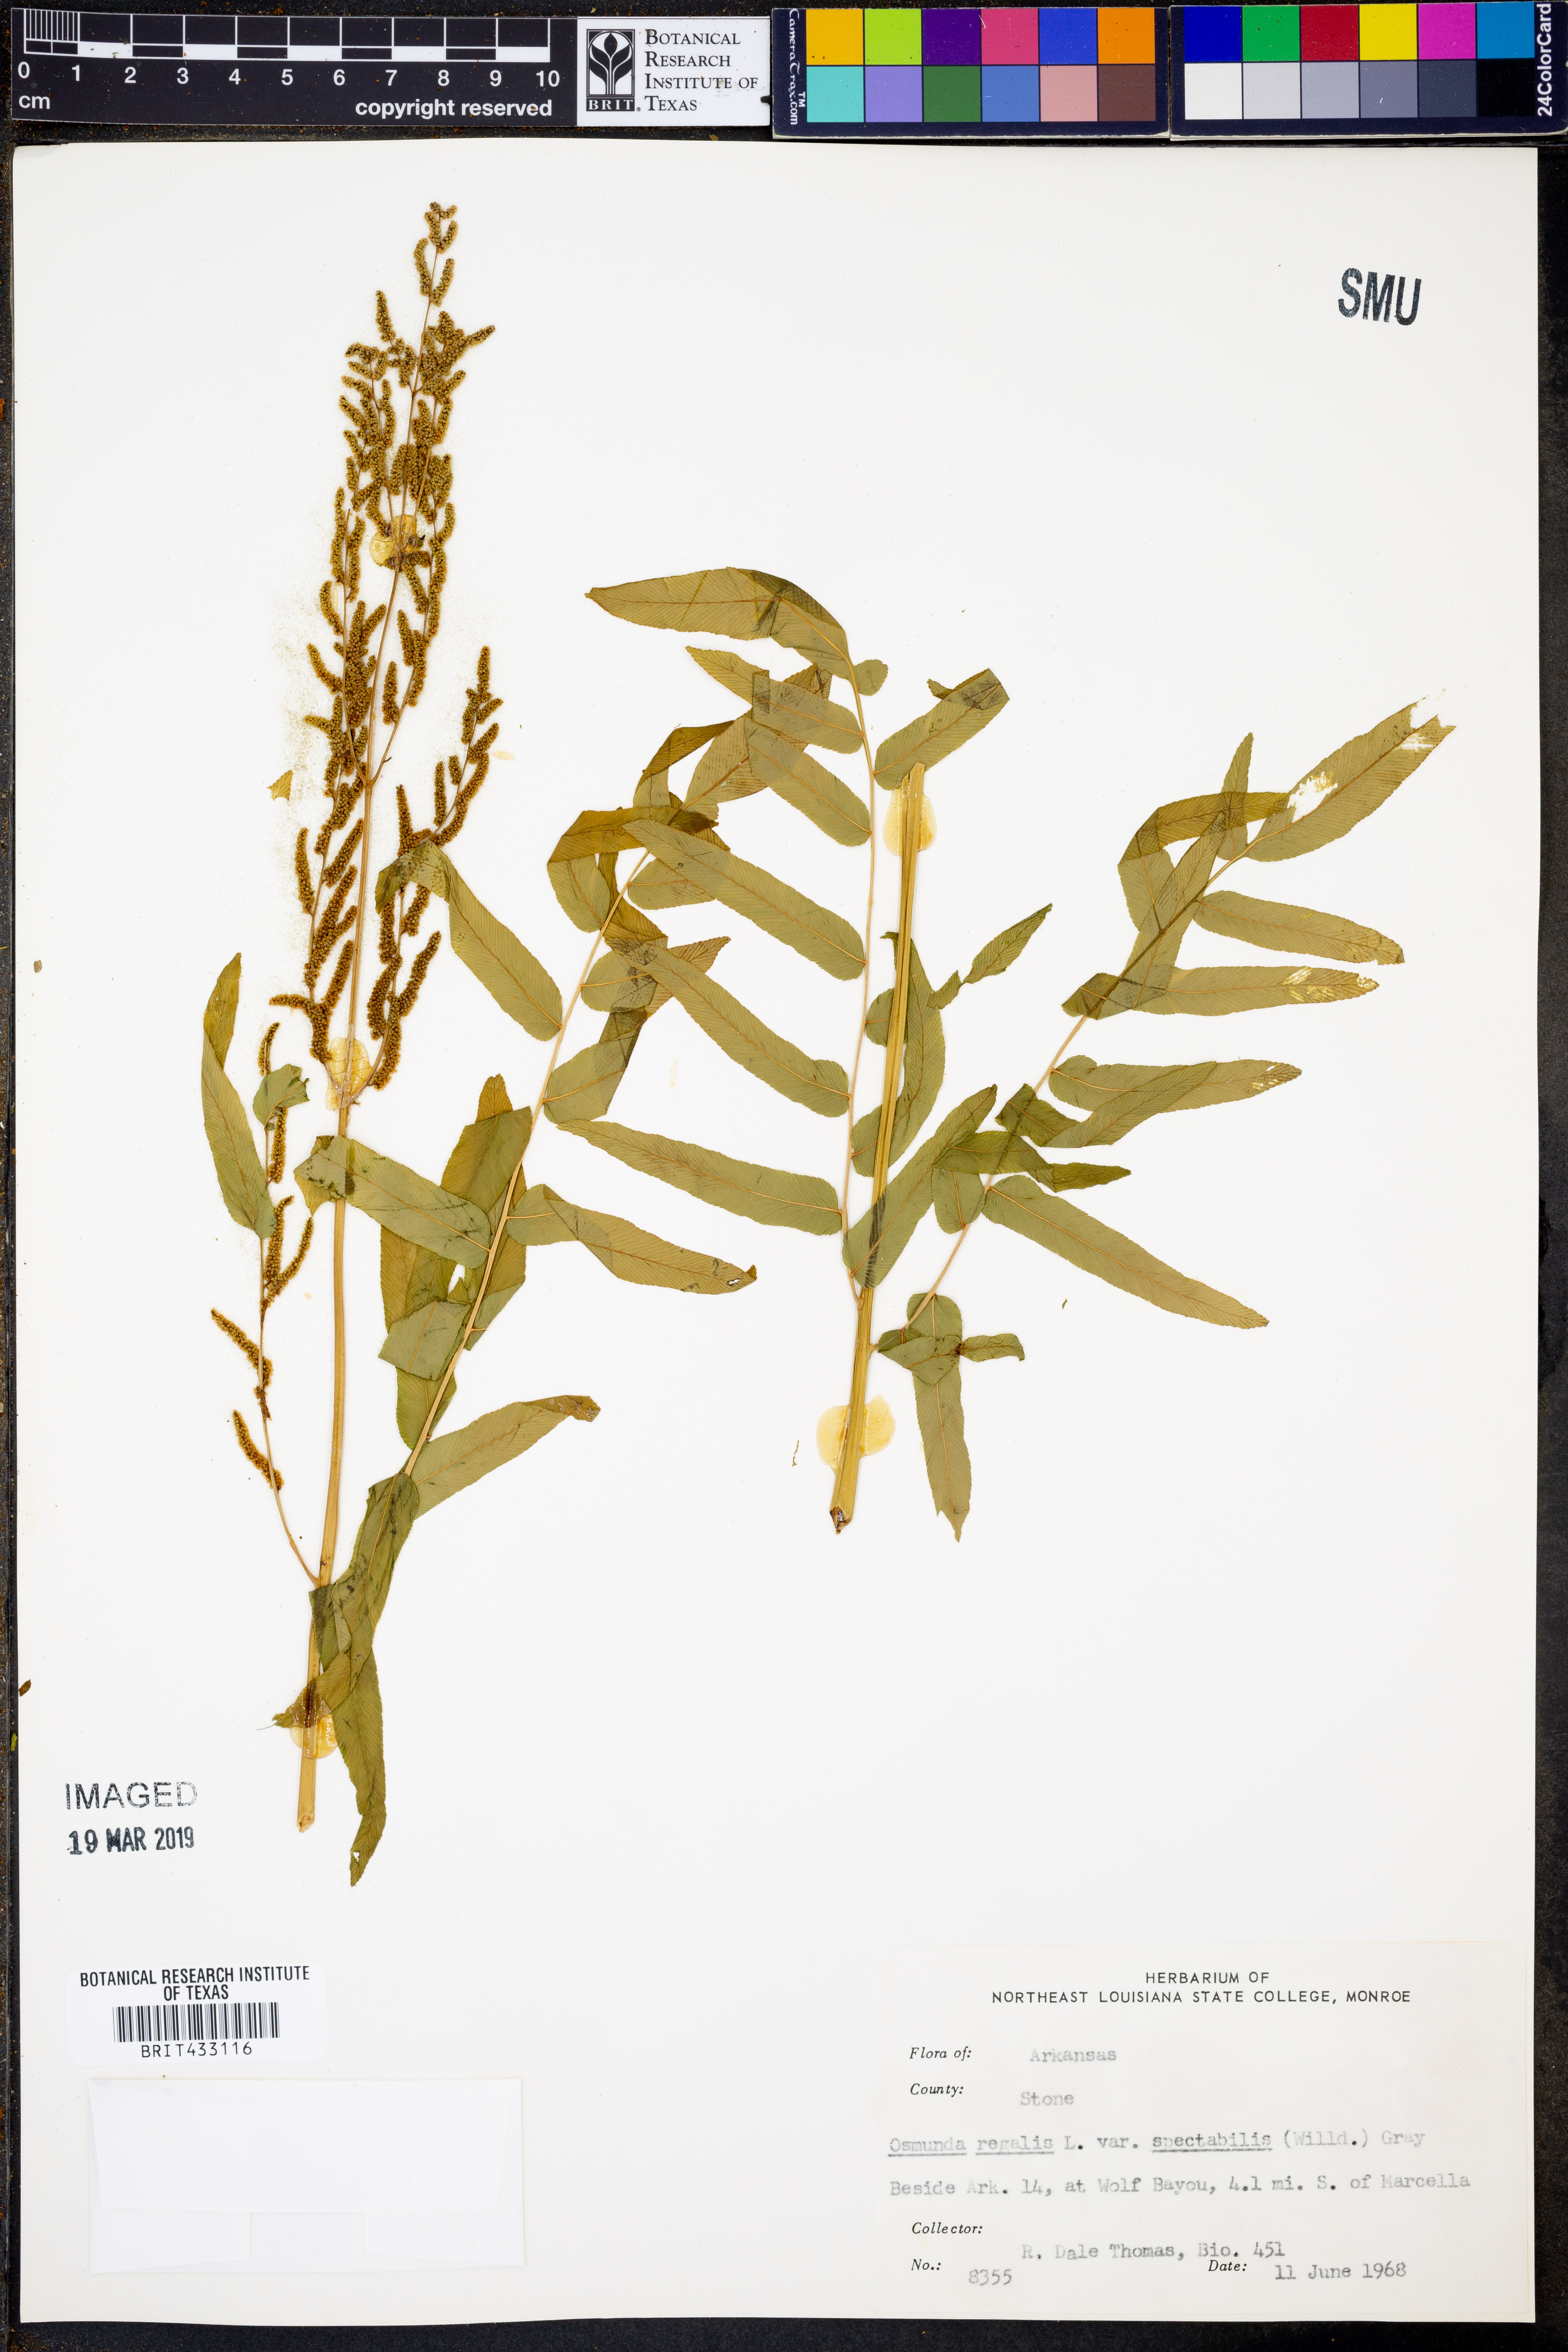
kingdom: Plantae
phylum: Tracheophyta
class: Polypodiopsida
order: Osmundales
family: Osmundaceae
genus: Osmunda
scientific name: Osmunda spectabilis
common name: American royal fern
